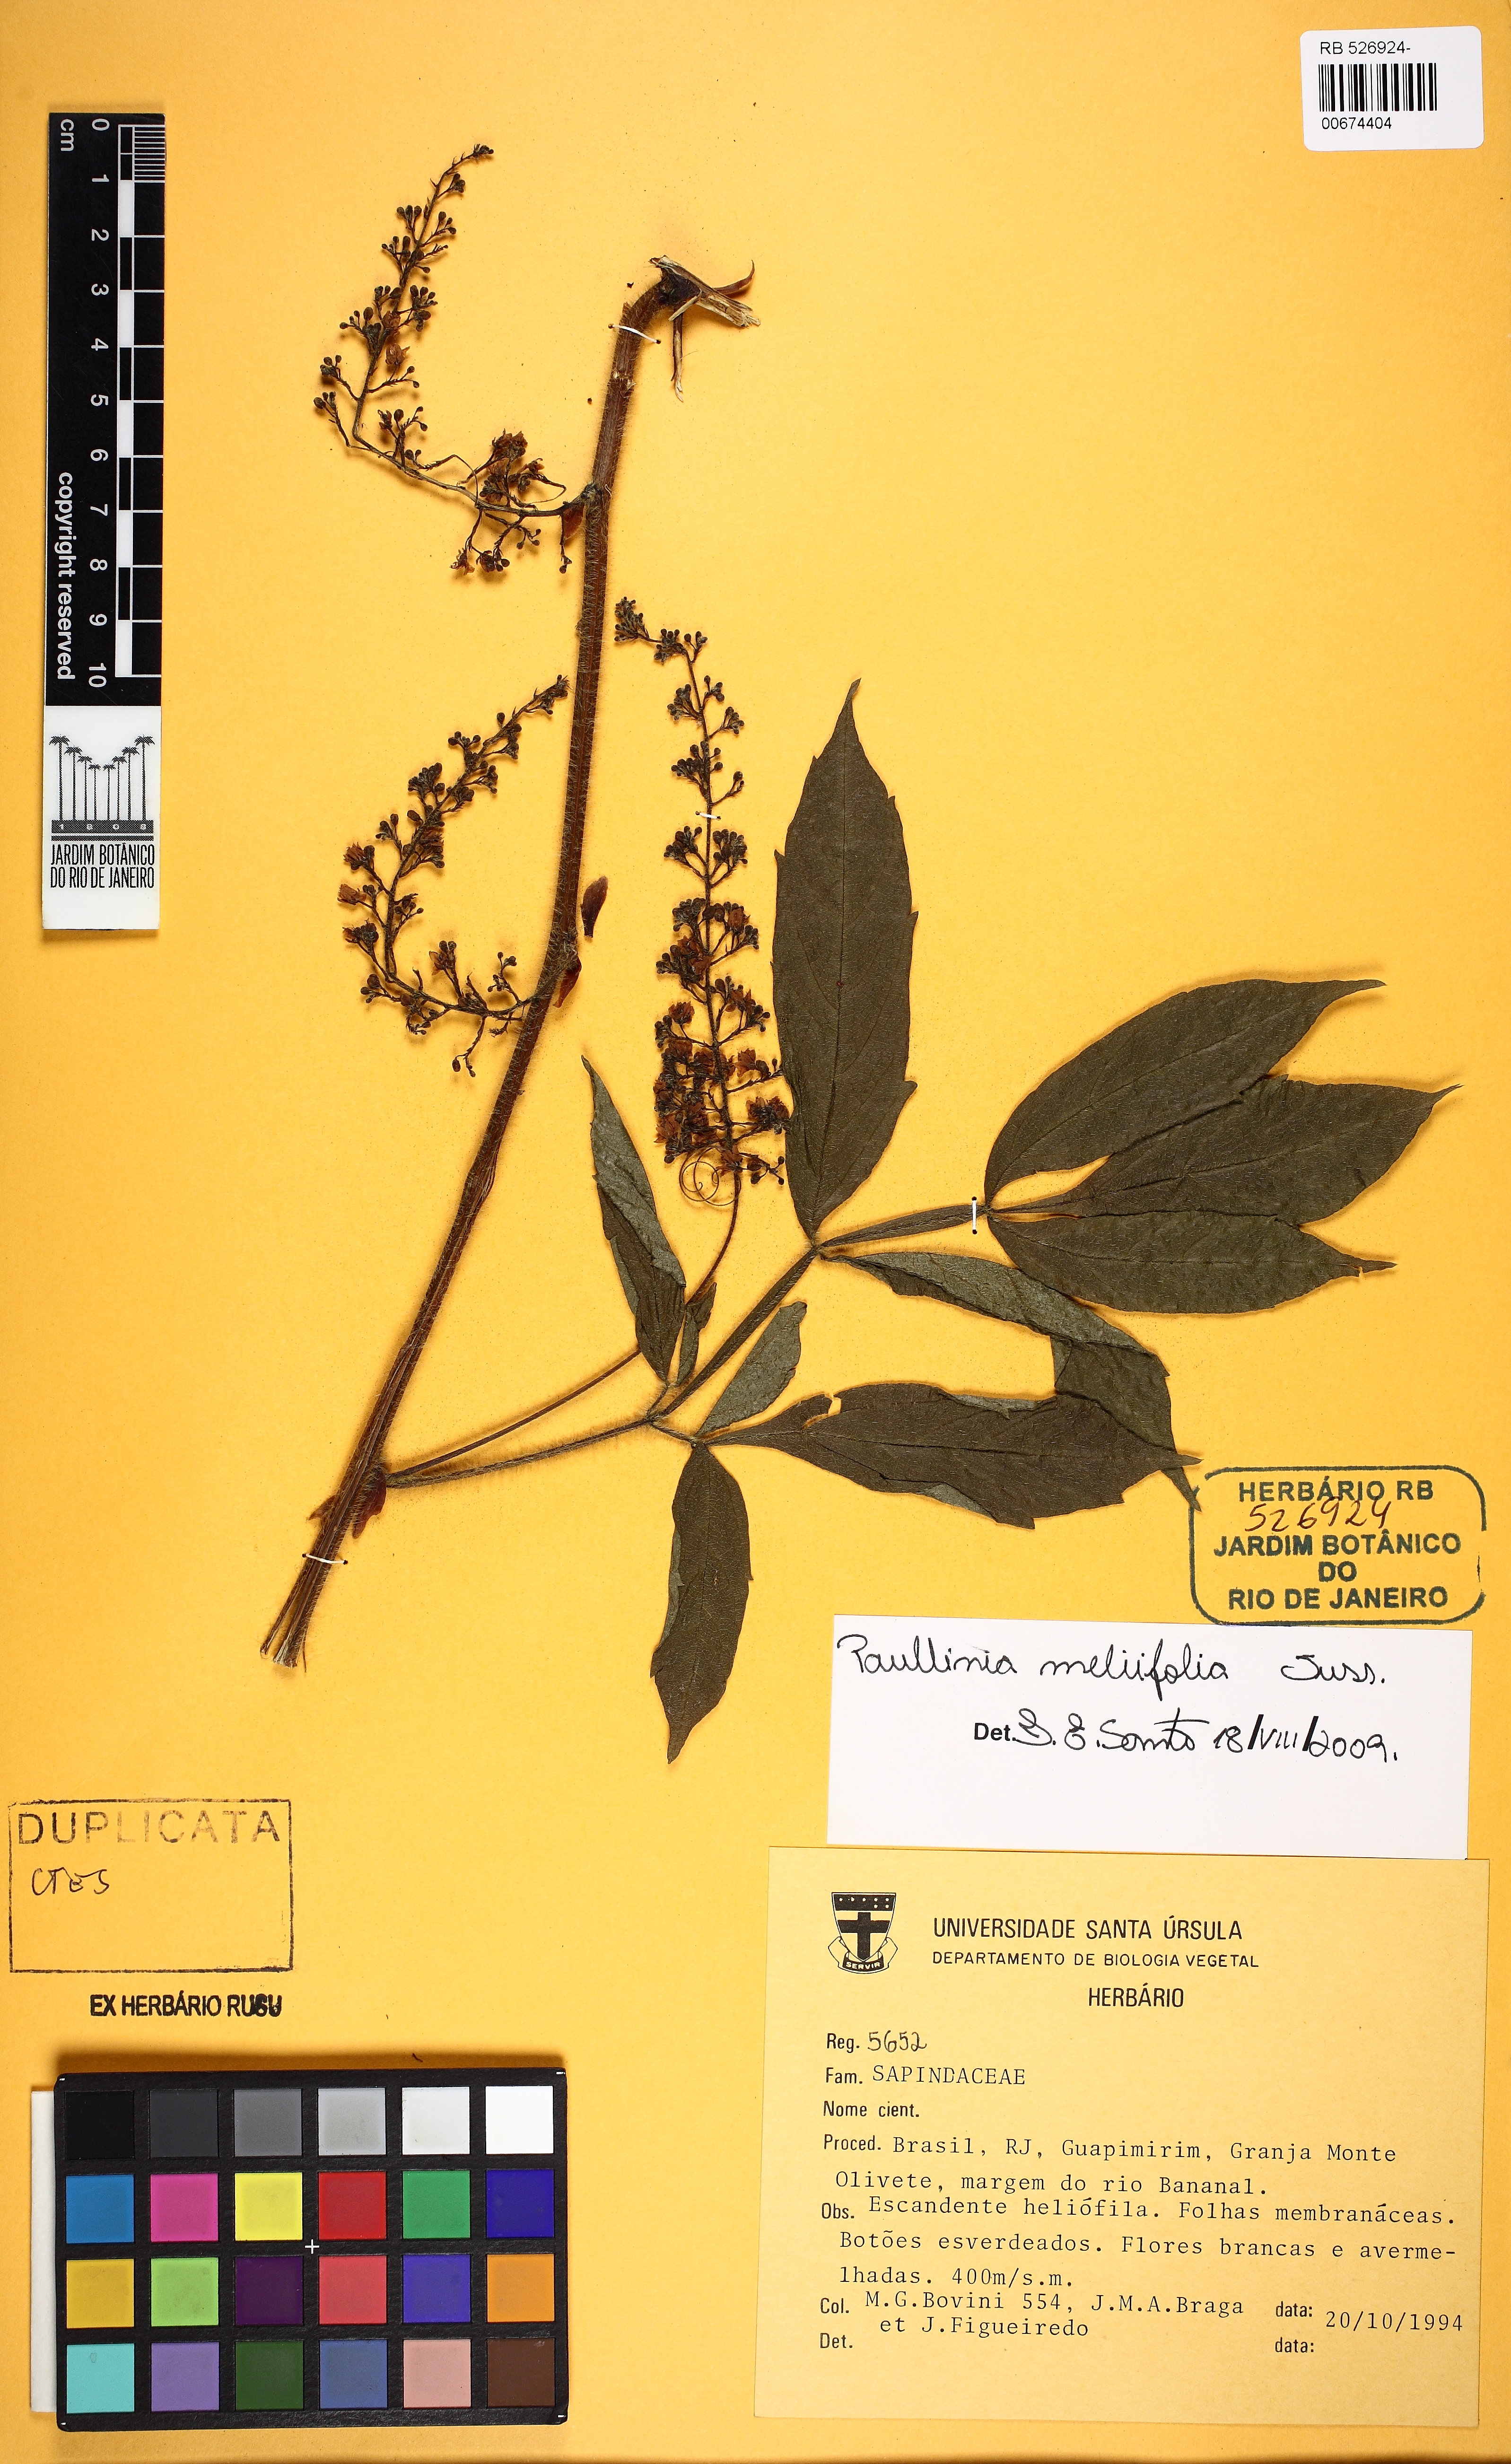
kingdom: Plantae
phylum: Tracheophyta
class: Magnoliopsida
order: Sapindales
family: Sapindaceae
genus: Paullinia
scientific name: Paullinia meliifolia
